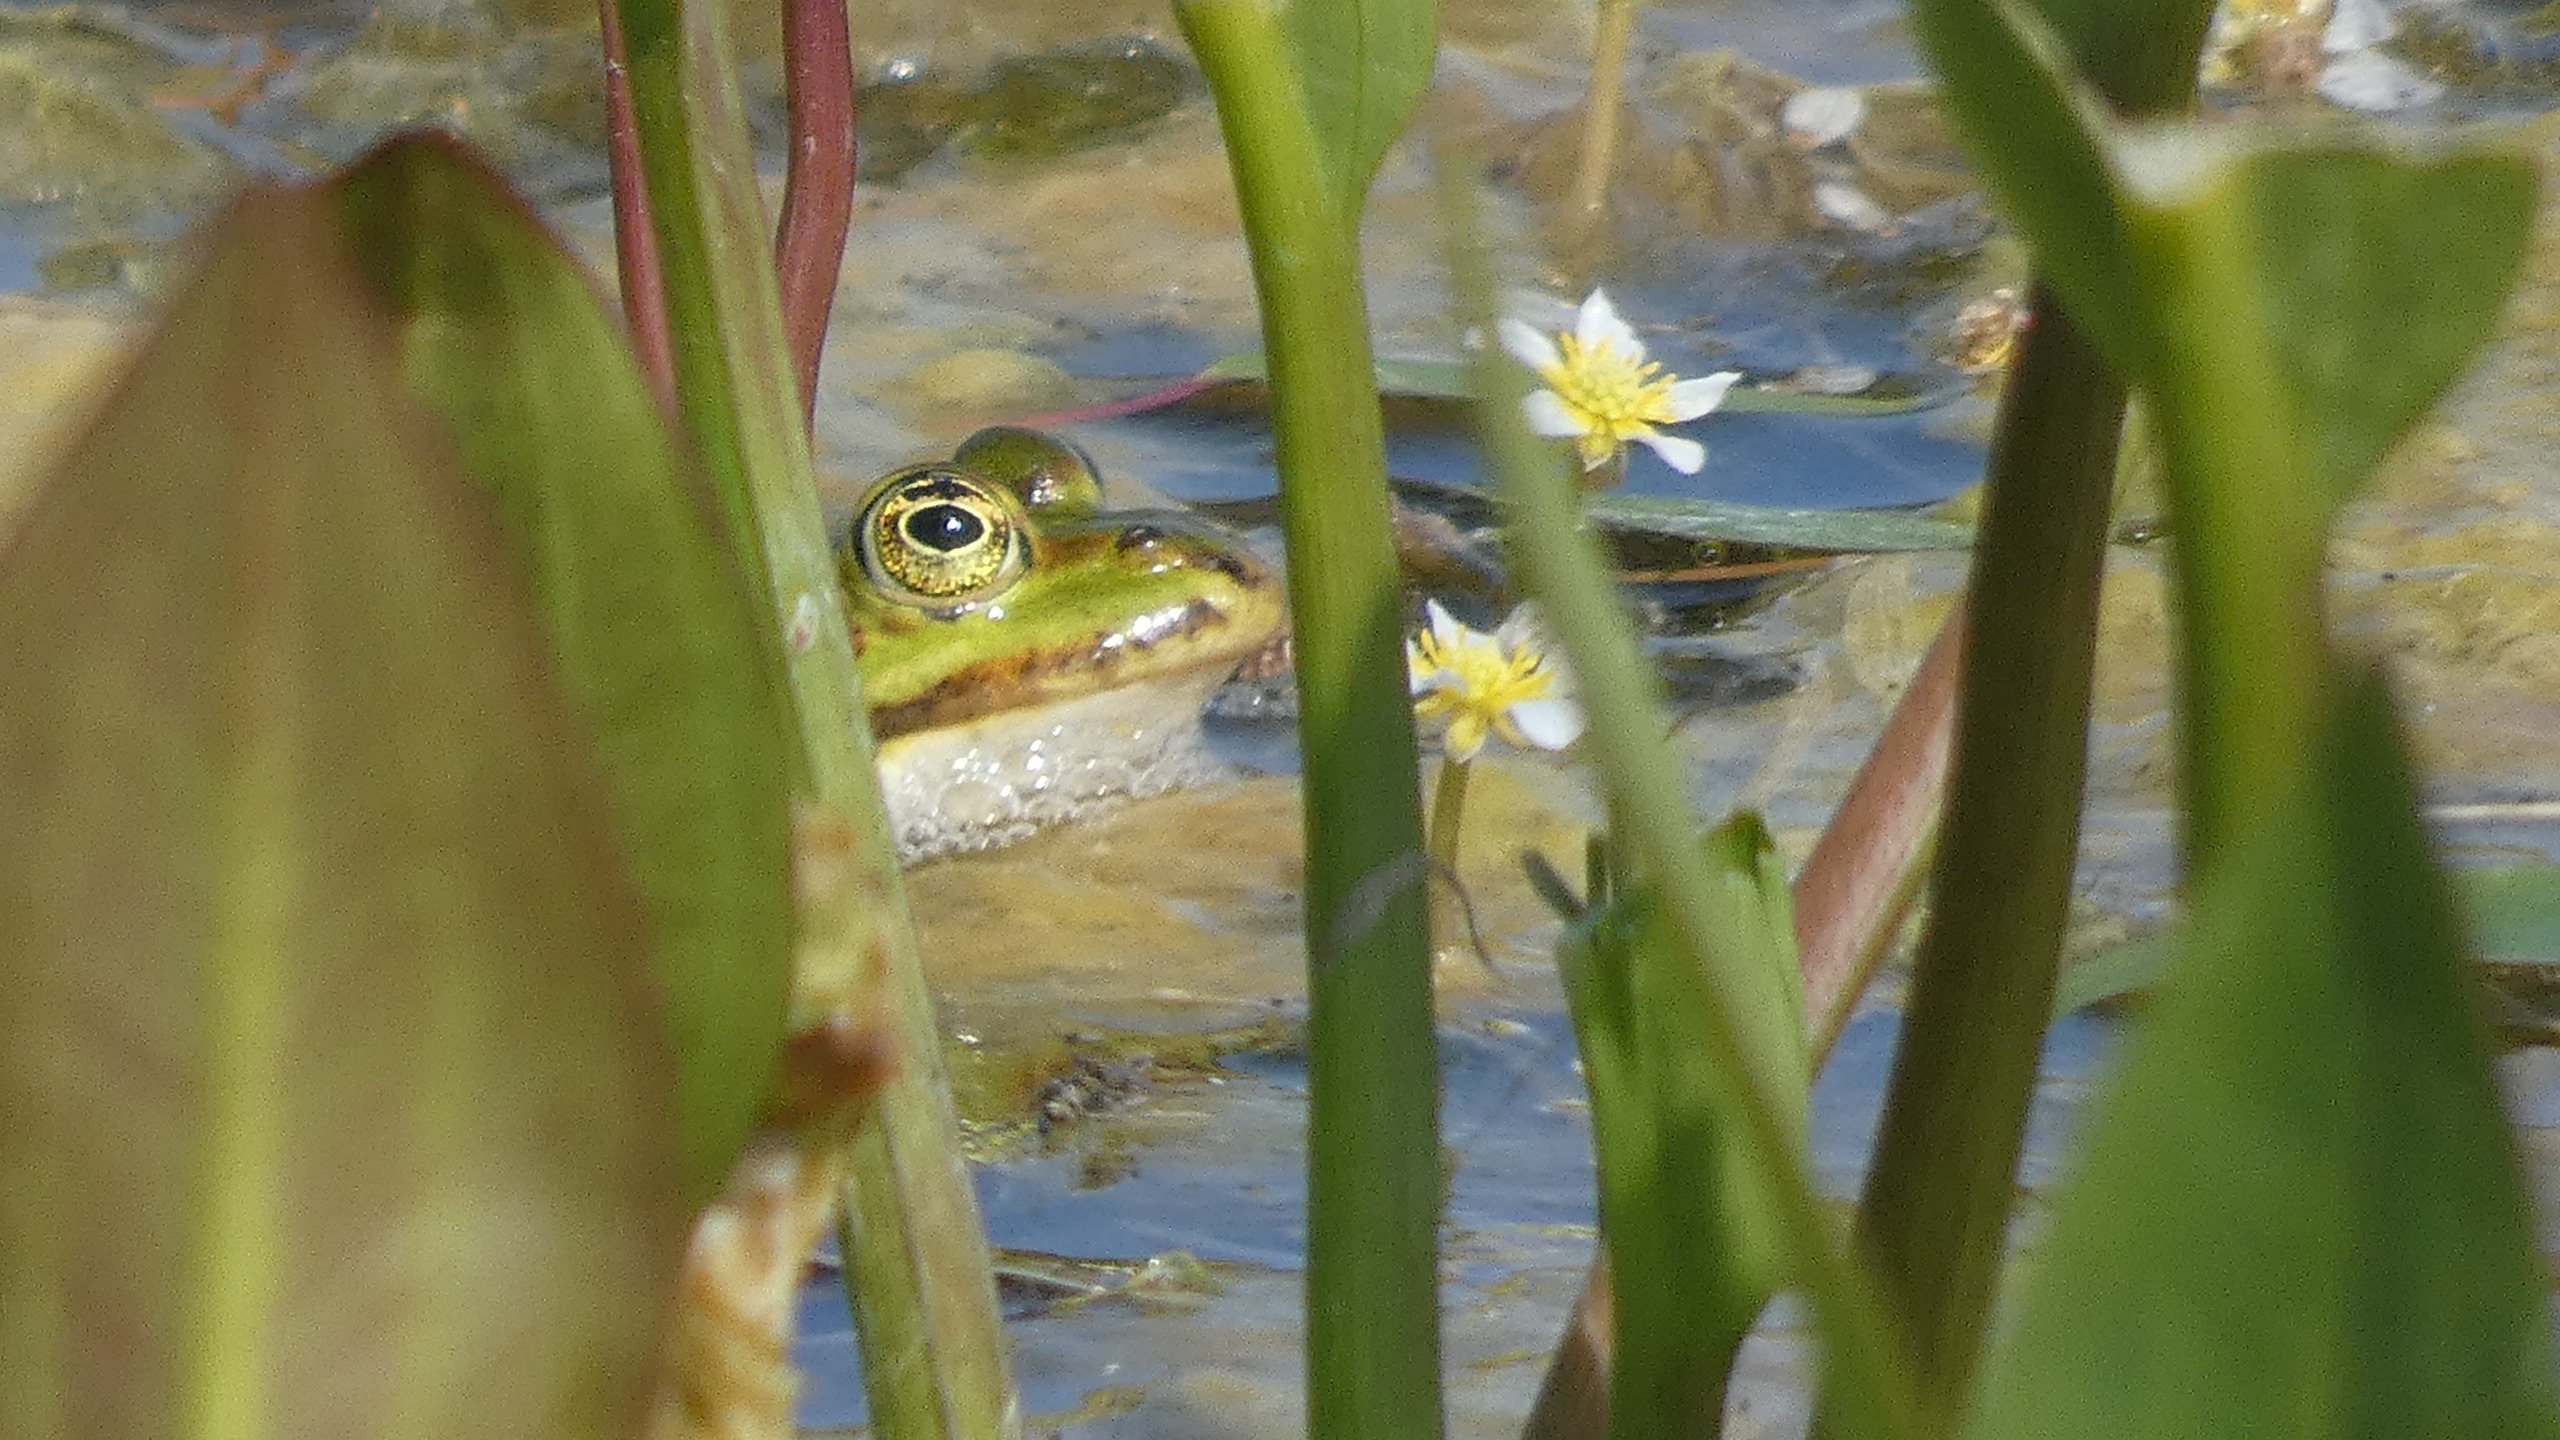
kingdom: Animalia
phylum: Chordata
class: Amphibia
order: Anura
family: Ranidae
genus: Pelophylax
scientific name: Pelophylax lessonae
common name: Grøn frø
